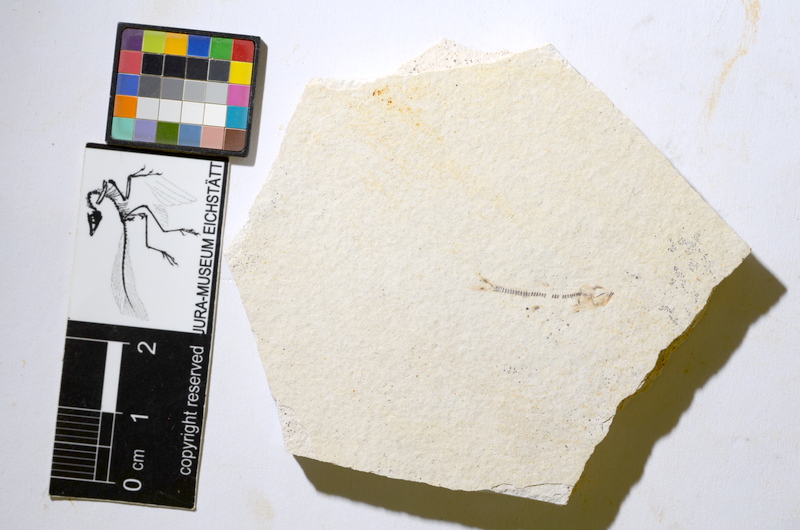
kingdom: Animalia
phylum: Chordata
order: Salmoniformes
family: Orthogonikleithridae
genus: Orthogonikleithrus
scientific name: Orthogonikleithrus
